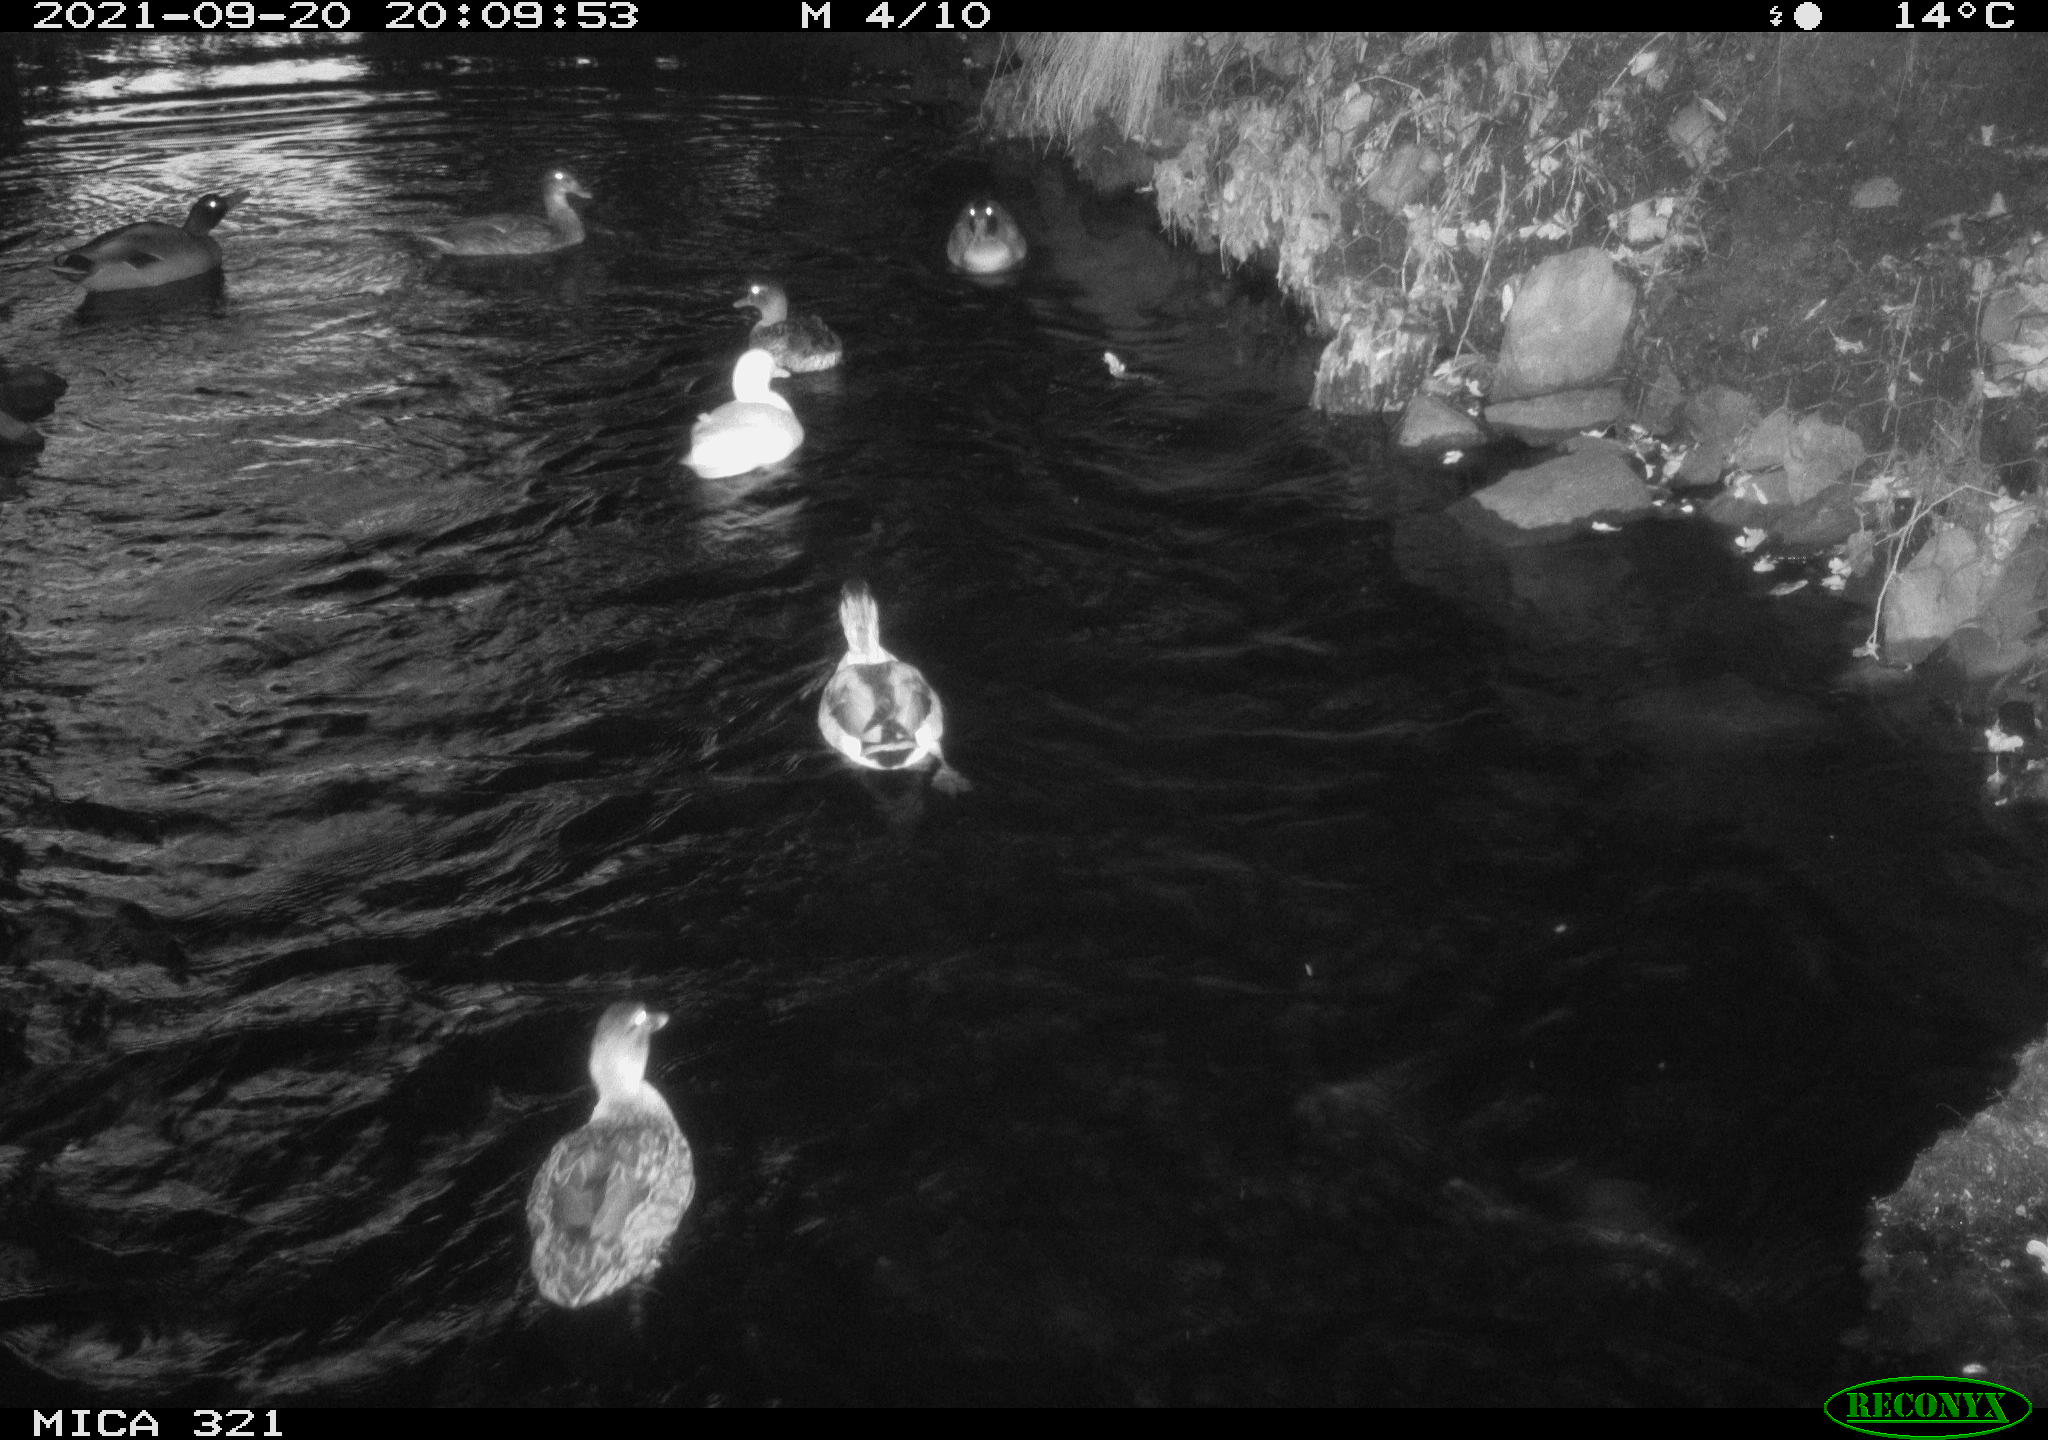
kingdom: Animalia
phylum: Chordata
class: Aves
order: Anseriformes
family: Anatidae
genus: Anas
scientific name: Anas platyrhynchos
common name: Mallard
